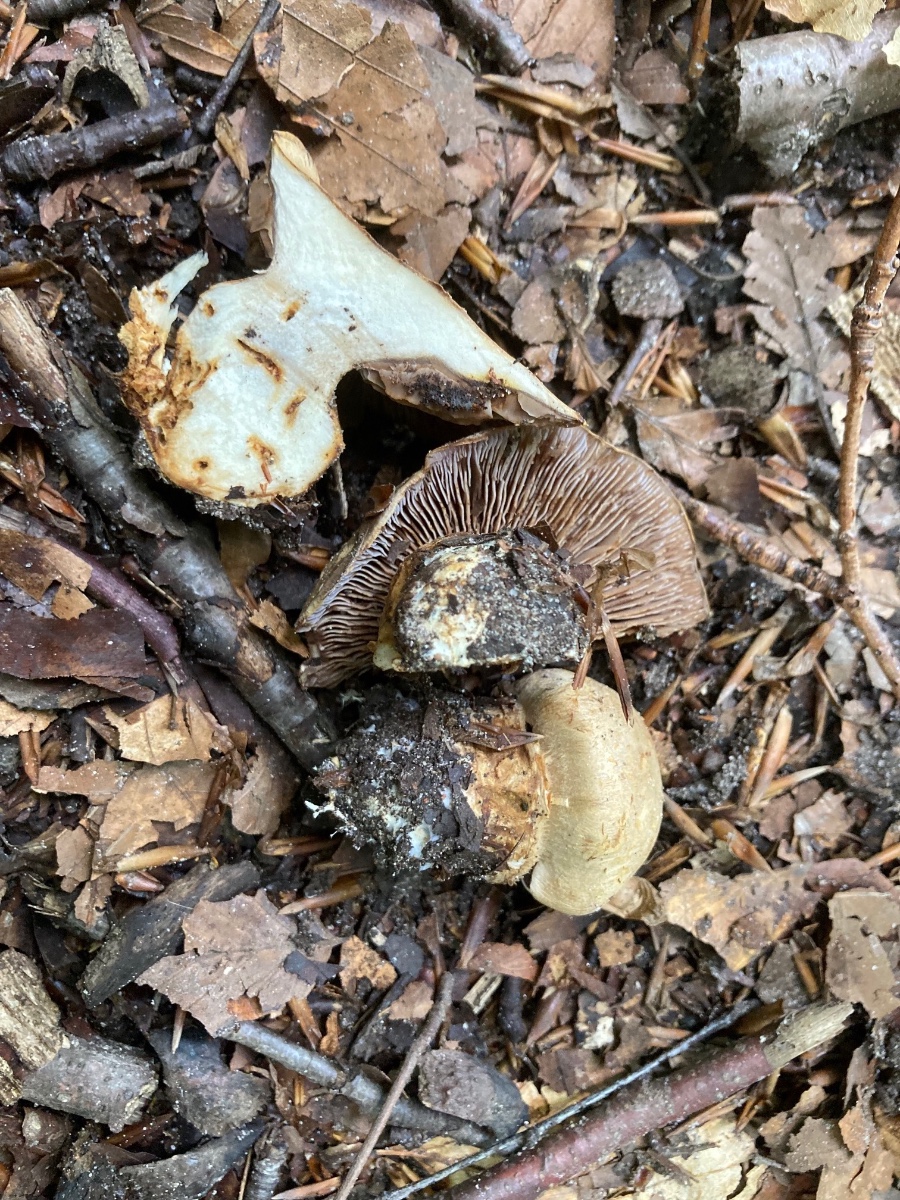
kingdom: Fungi
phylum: Basidiomycota
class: Agaricomycetes
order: Agaricales
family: Cortinariaceae
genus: Phlegmacium
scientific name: Phlegmacium luhmannii
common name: musegrå slørhat
